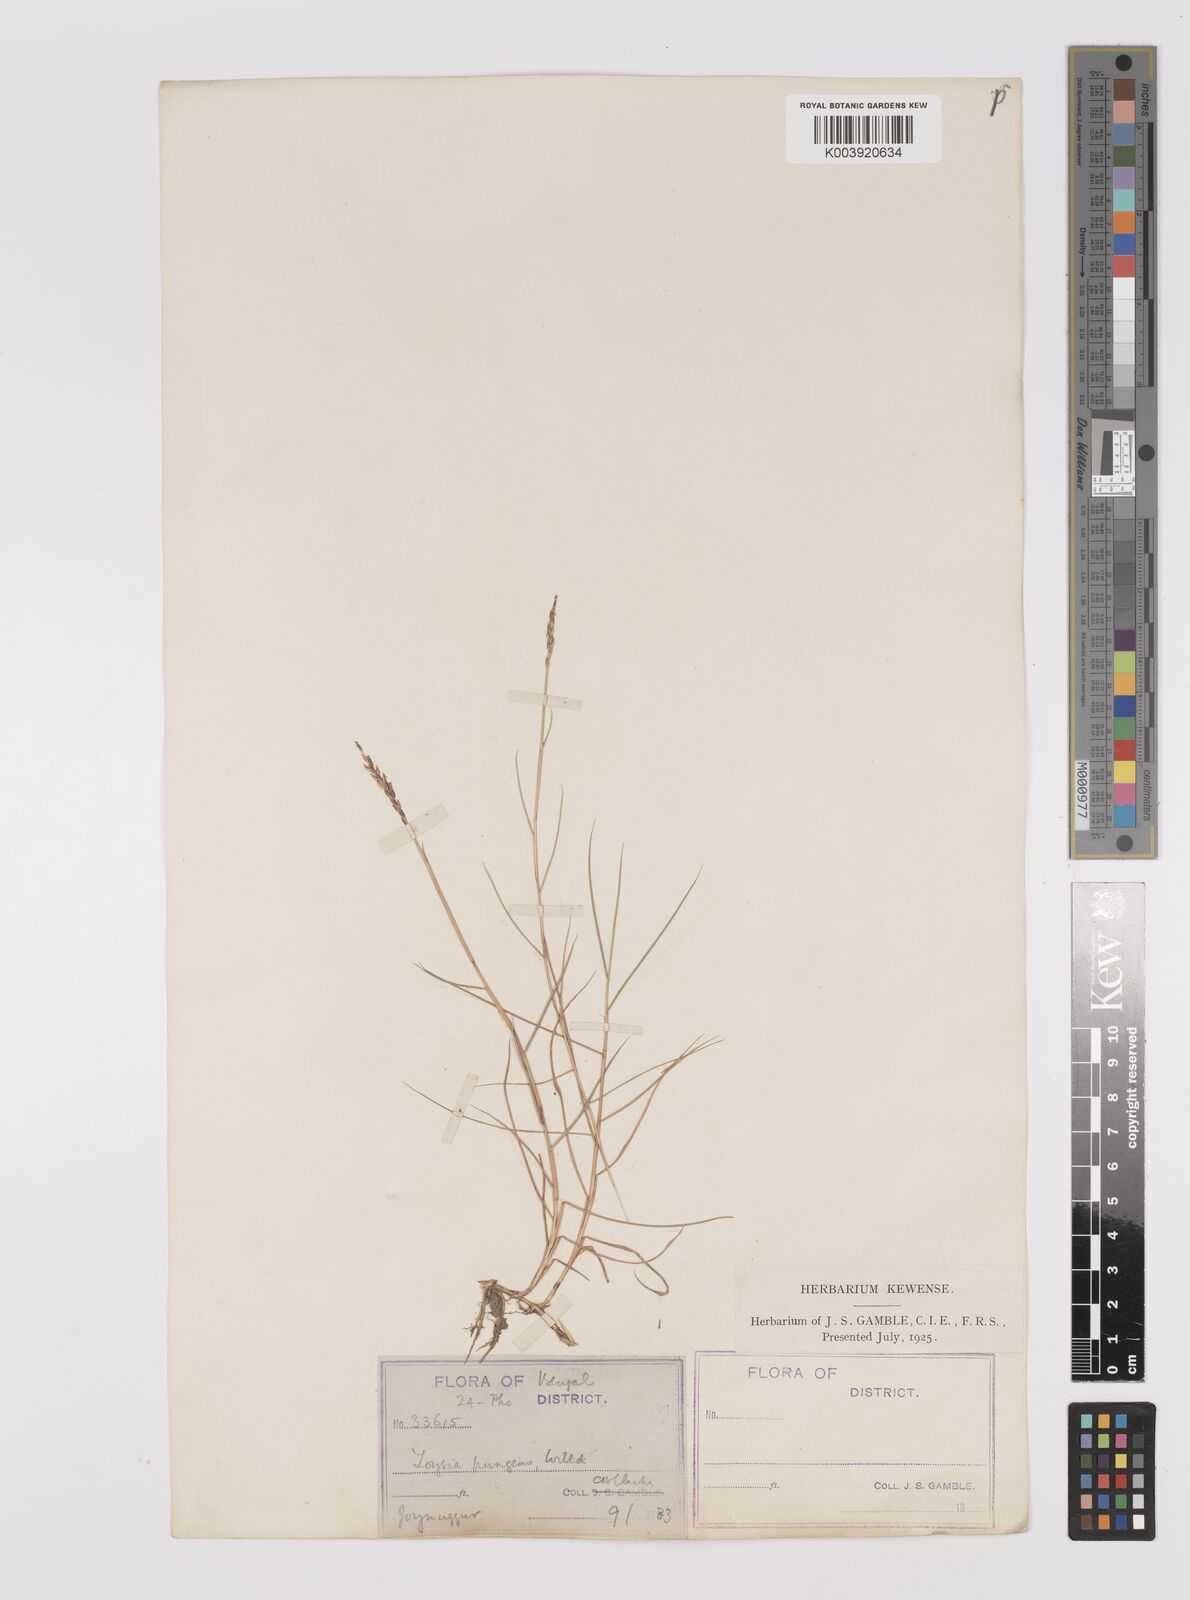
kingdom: Plantae
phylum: Tracheophyta
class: Liliopsida
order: Poales
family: Poaceae
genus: Zoysia
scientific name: Zoysia matrella
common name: Manila grass
